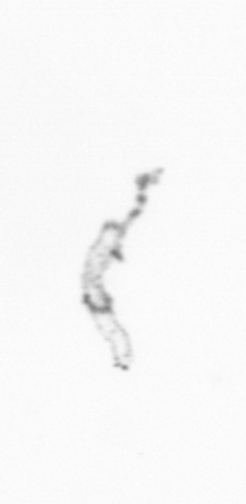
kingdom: Chromista
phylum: Ochrophyta
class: Bacillariophyceae
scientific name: Bacillariophyceae
